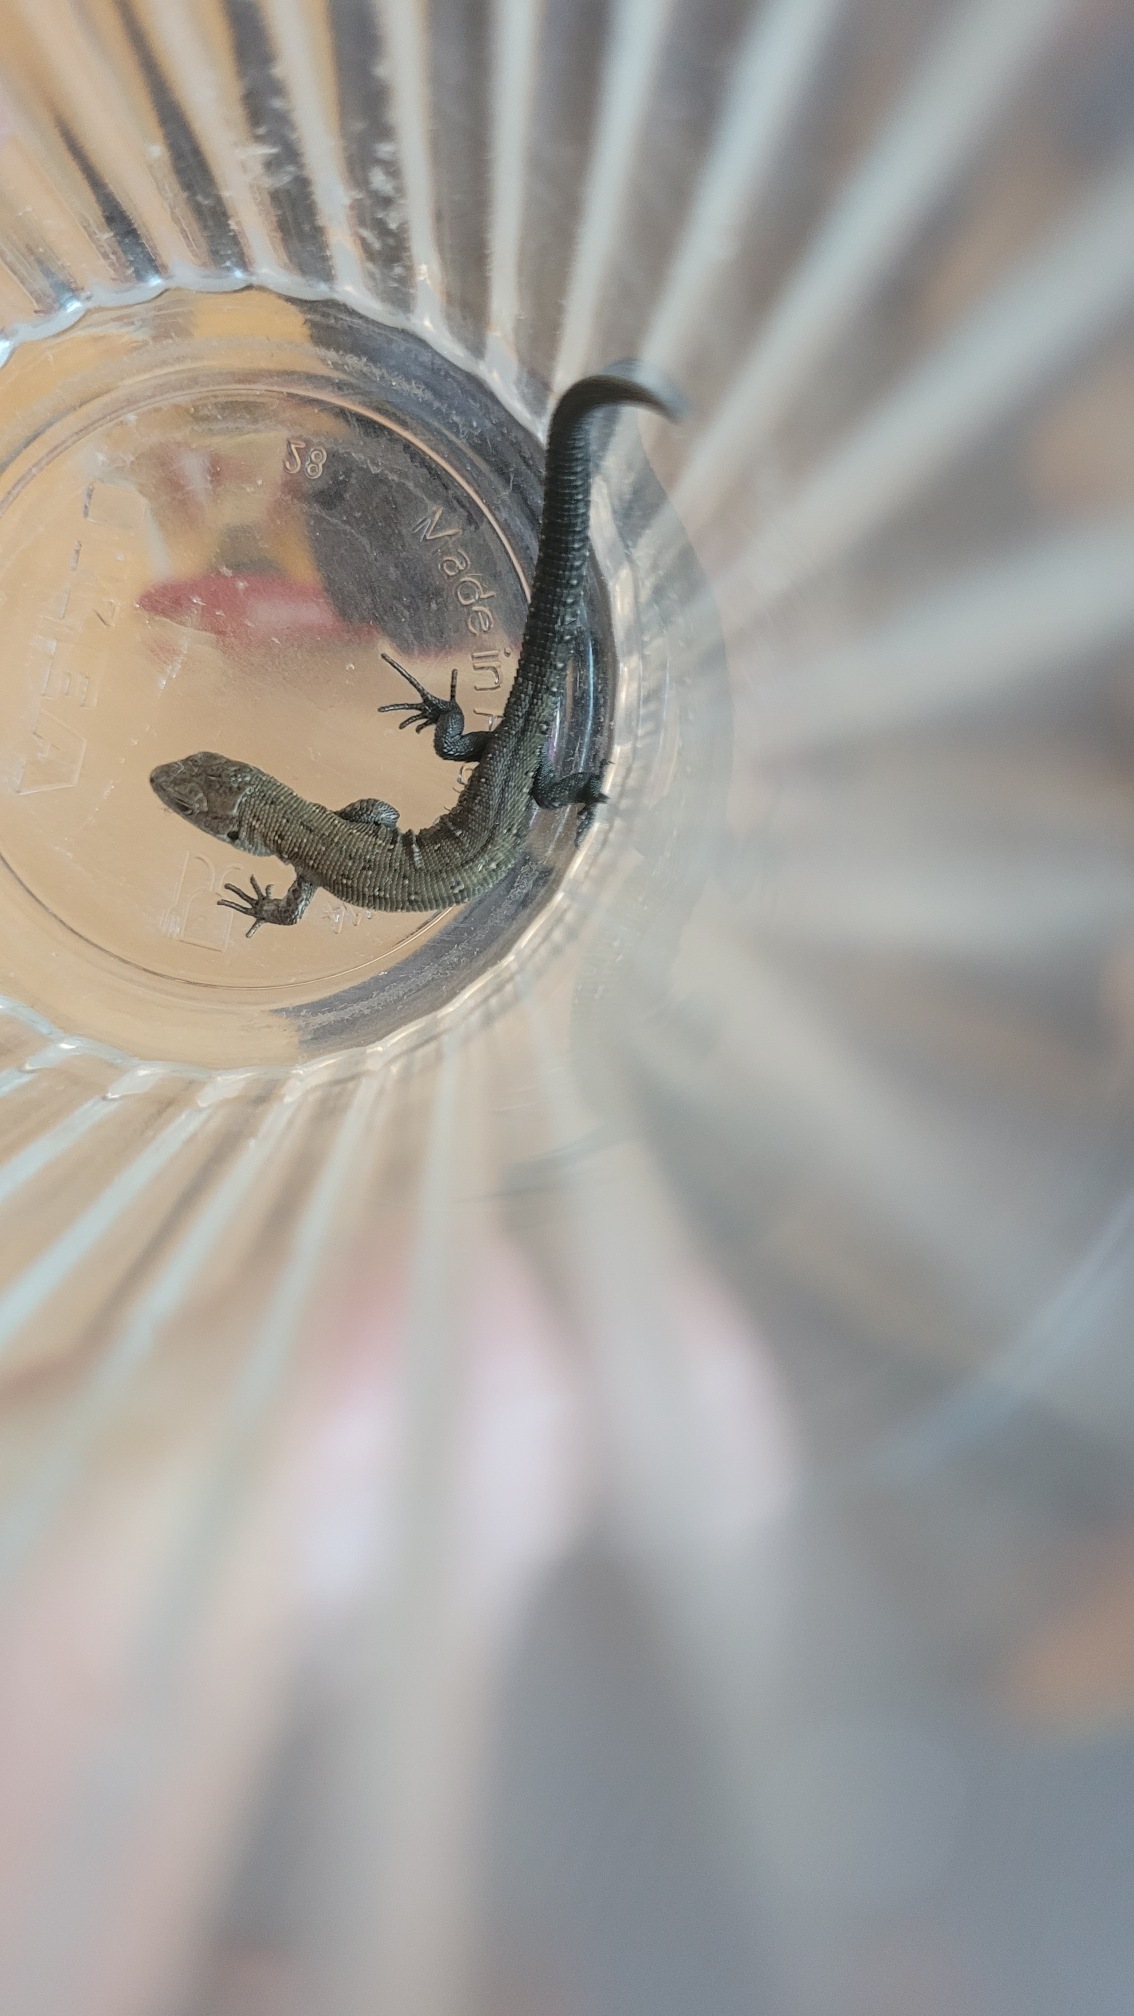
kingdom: Animalia
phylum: Chordata
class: Squamata
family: Lacertidae
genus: Zootoca
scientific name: Zootoca vivipara
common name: Skovfirben
